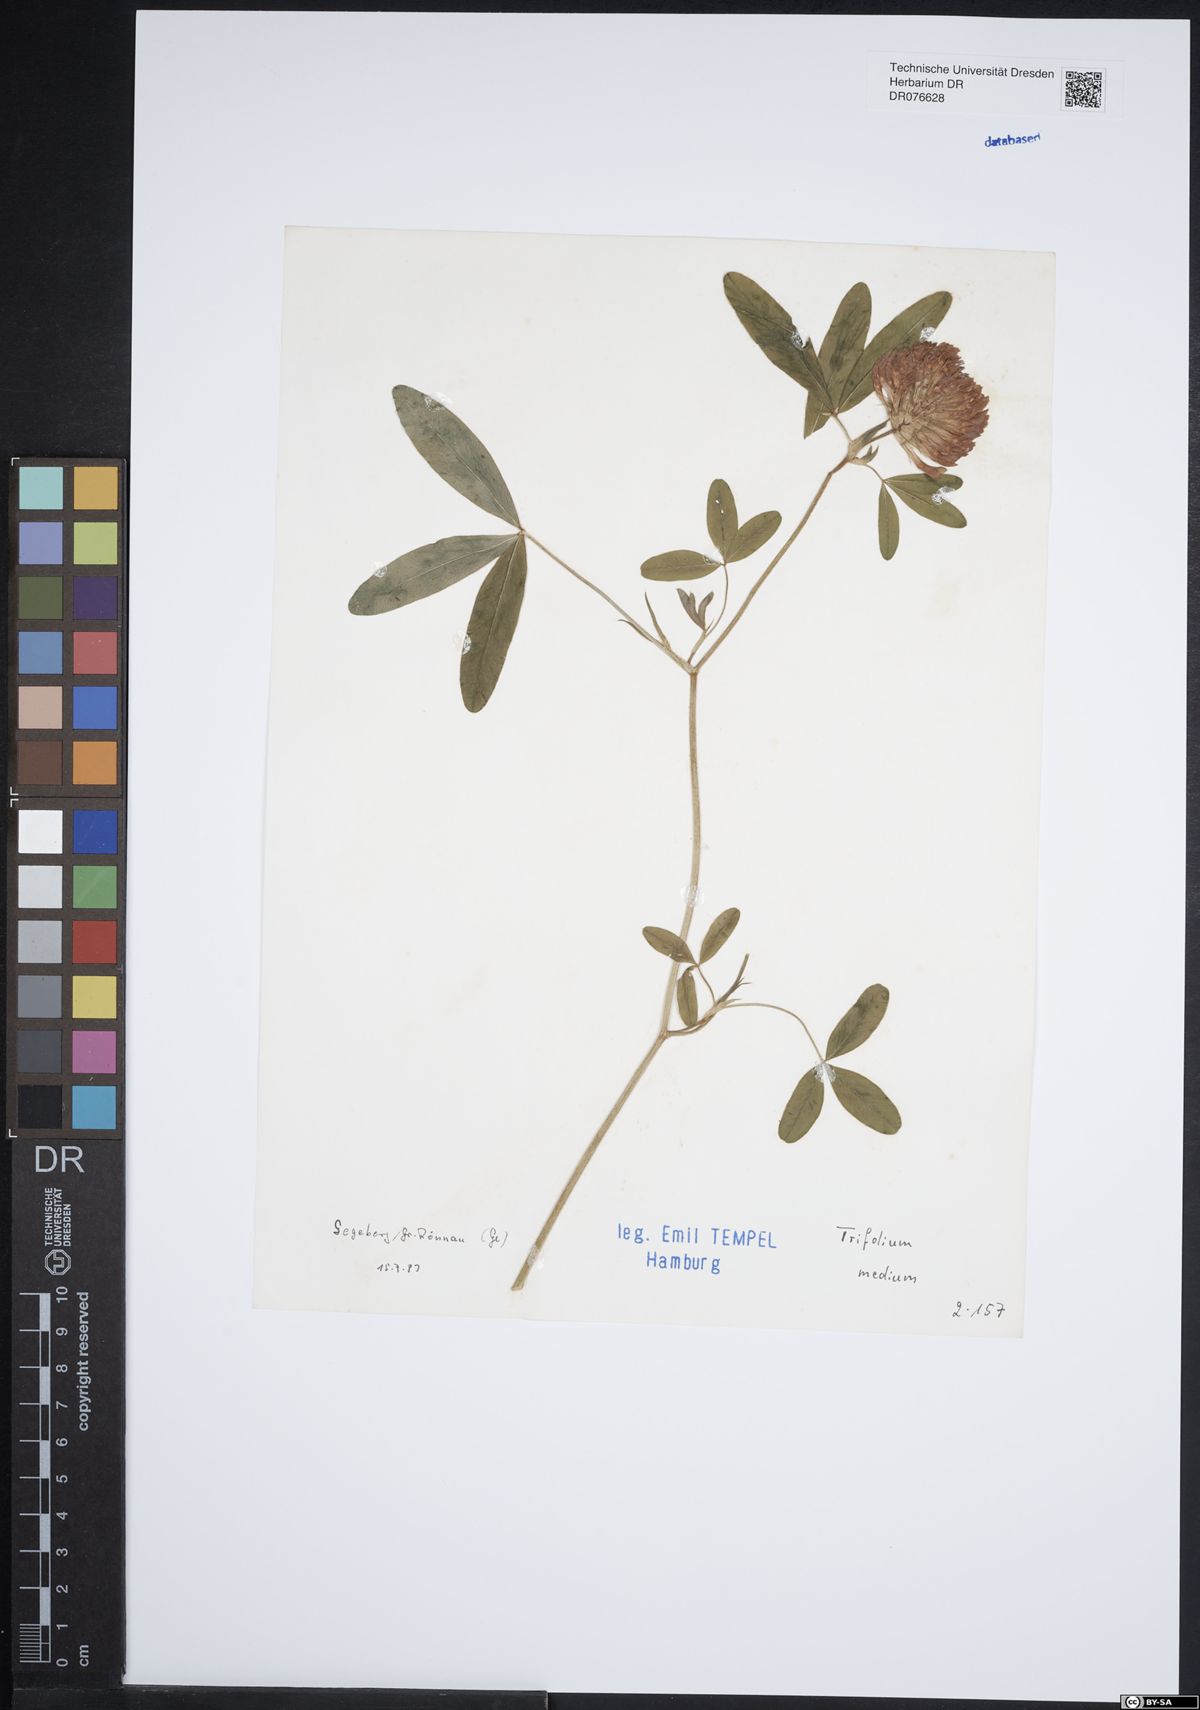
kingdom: Plantae
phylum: Tracheophyta
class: Magnoliopsida
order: Fabales
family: Fabaceae
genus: Trifolium
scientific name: Trifolium medium
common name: Zigzag clover
